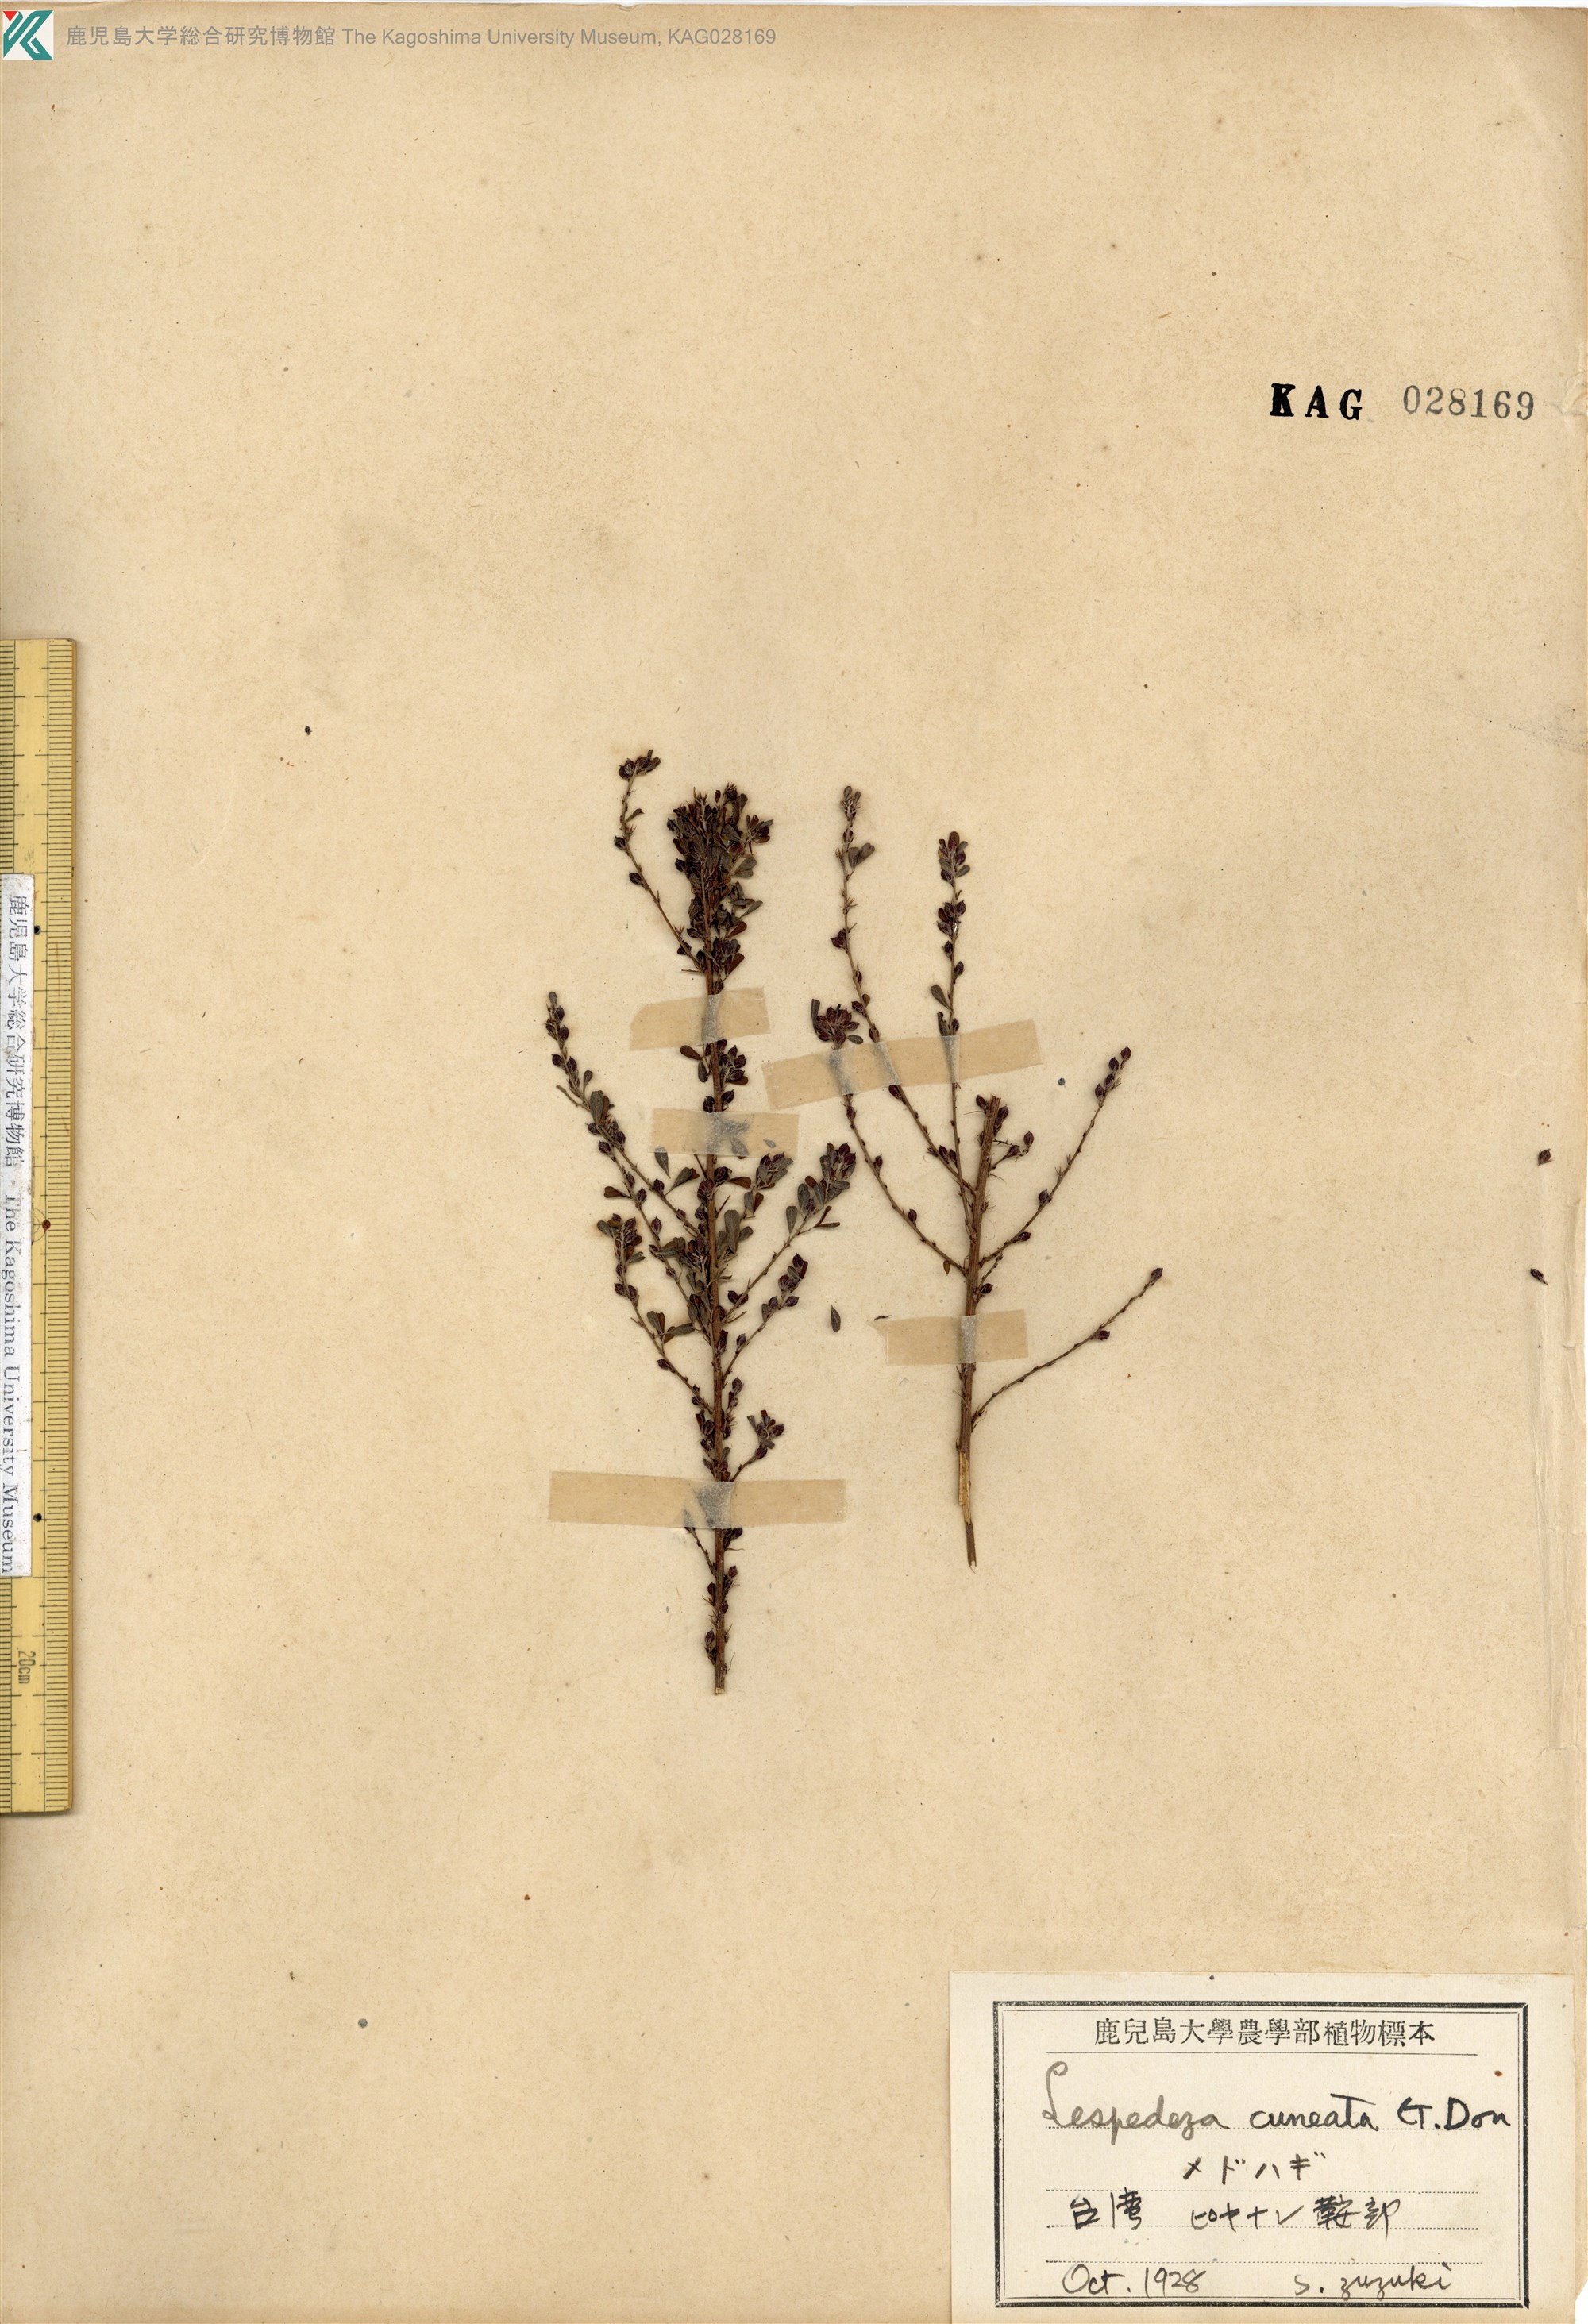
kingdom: Plantae
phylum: Tracheophyta
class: Magnoliopsida
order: Fabales
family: Fabaceae
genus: Lespedeza
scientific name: Lespedeza cuneata
